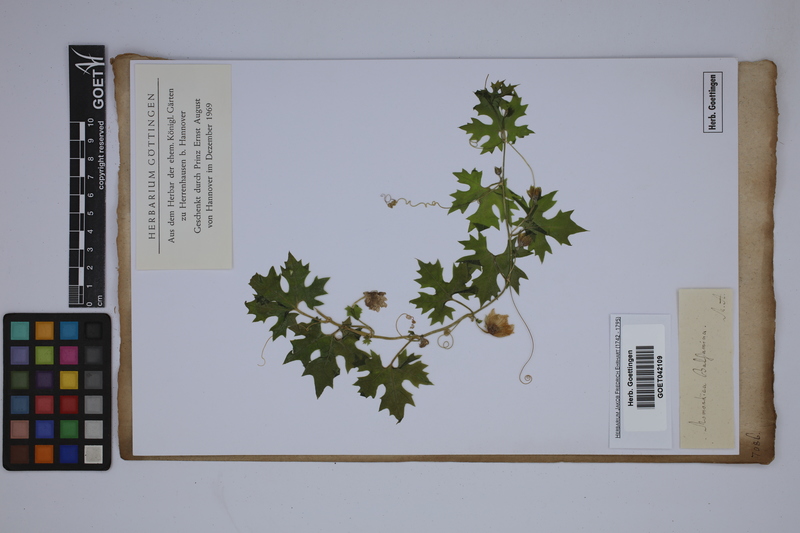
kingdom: Plantae
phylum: Tracheophyta
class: Magnoliopsida
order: Cucurbitales
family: Cucurbitaceae
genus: Momordica
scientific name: Momordica balsamina
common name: Southern balsampear
